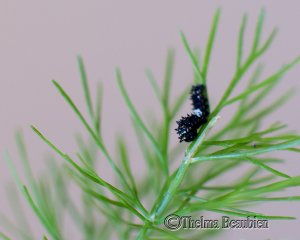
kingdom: Animalia
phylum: Arthropoda
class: Insecta
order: Lepidoptera
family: Papilionidae
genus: Papilio
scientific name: Papilio polyxenes
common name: Black Swallowtail
